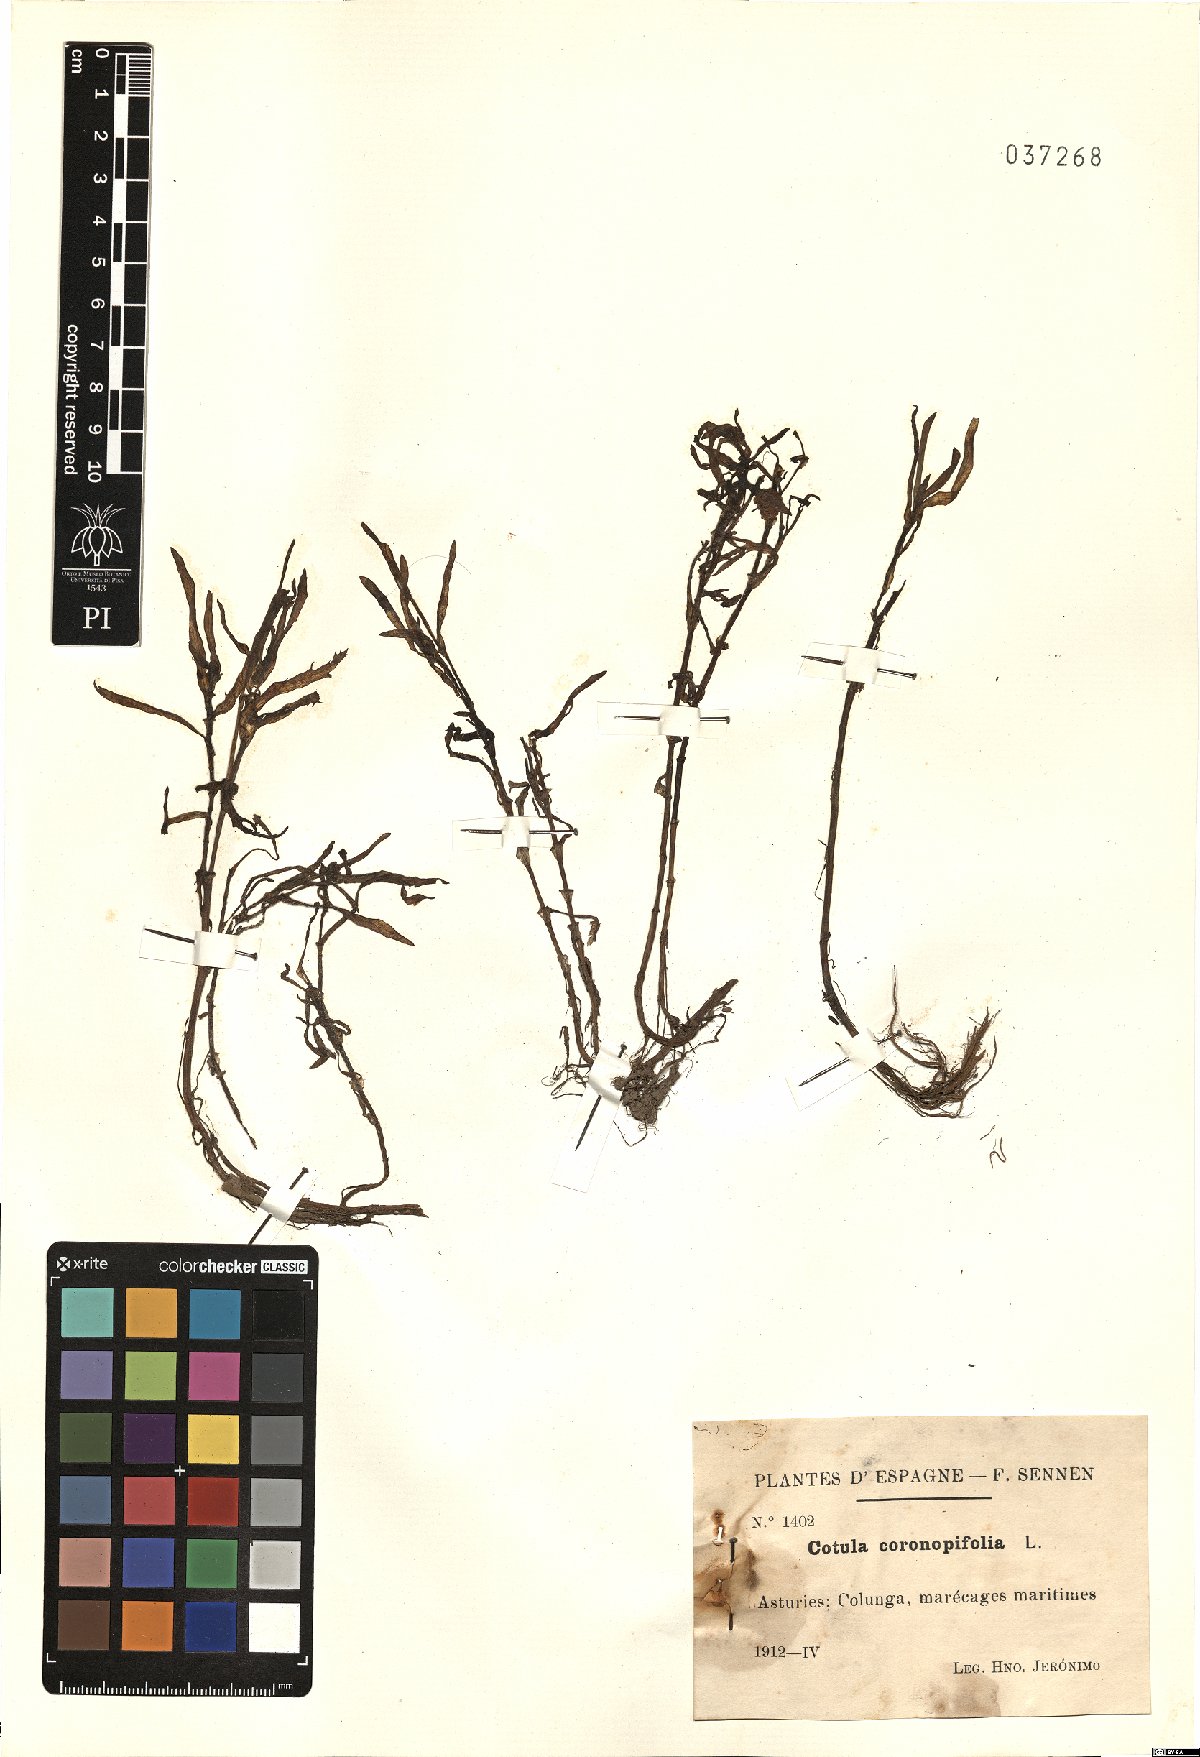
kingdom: Plantae
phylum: Tracheophyta
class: Magnoliopsida
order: Asterales
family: Asteraceae
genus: Cotula
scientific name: Cotula coronopifolia
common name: Buttonweed
